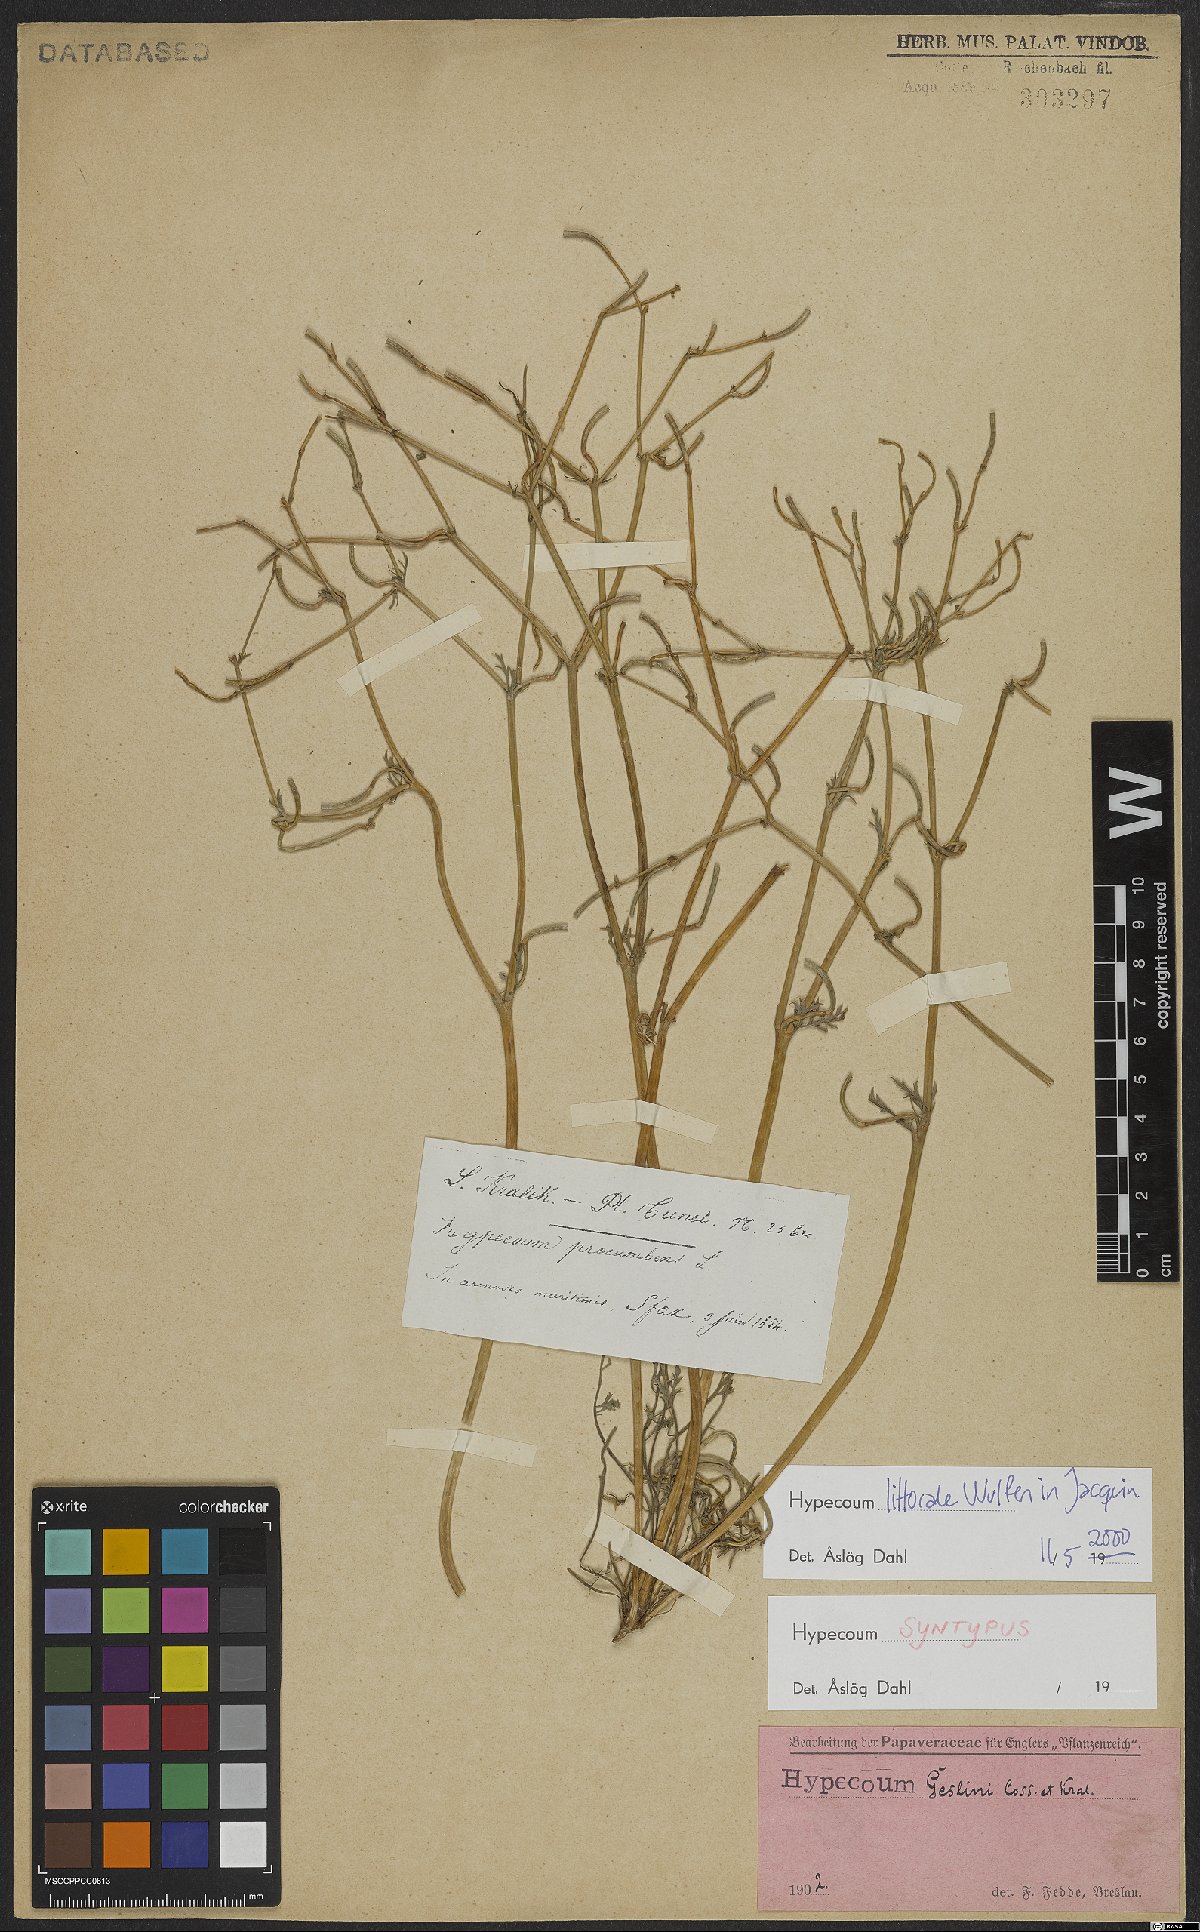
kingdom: Plantae
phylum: Tracheophyta
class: Magnoliopsida
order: Ranunculales
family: Papaveraceae
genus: Hypecoum
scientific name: Hypecoum littorale
